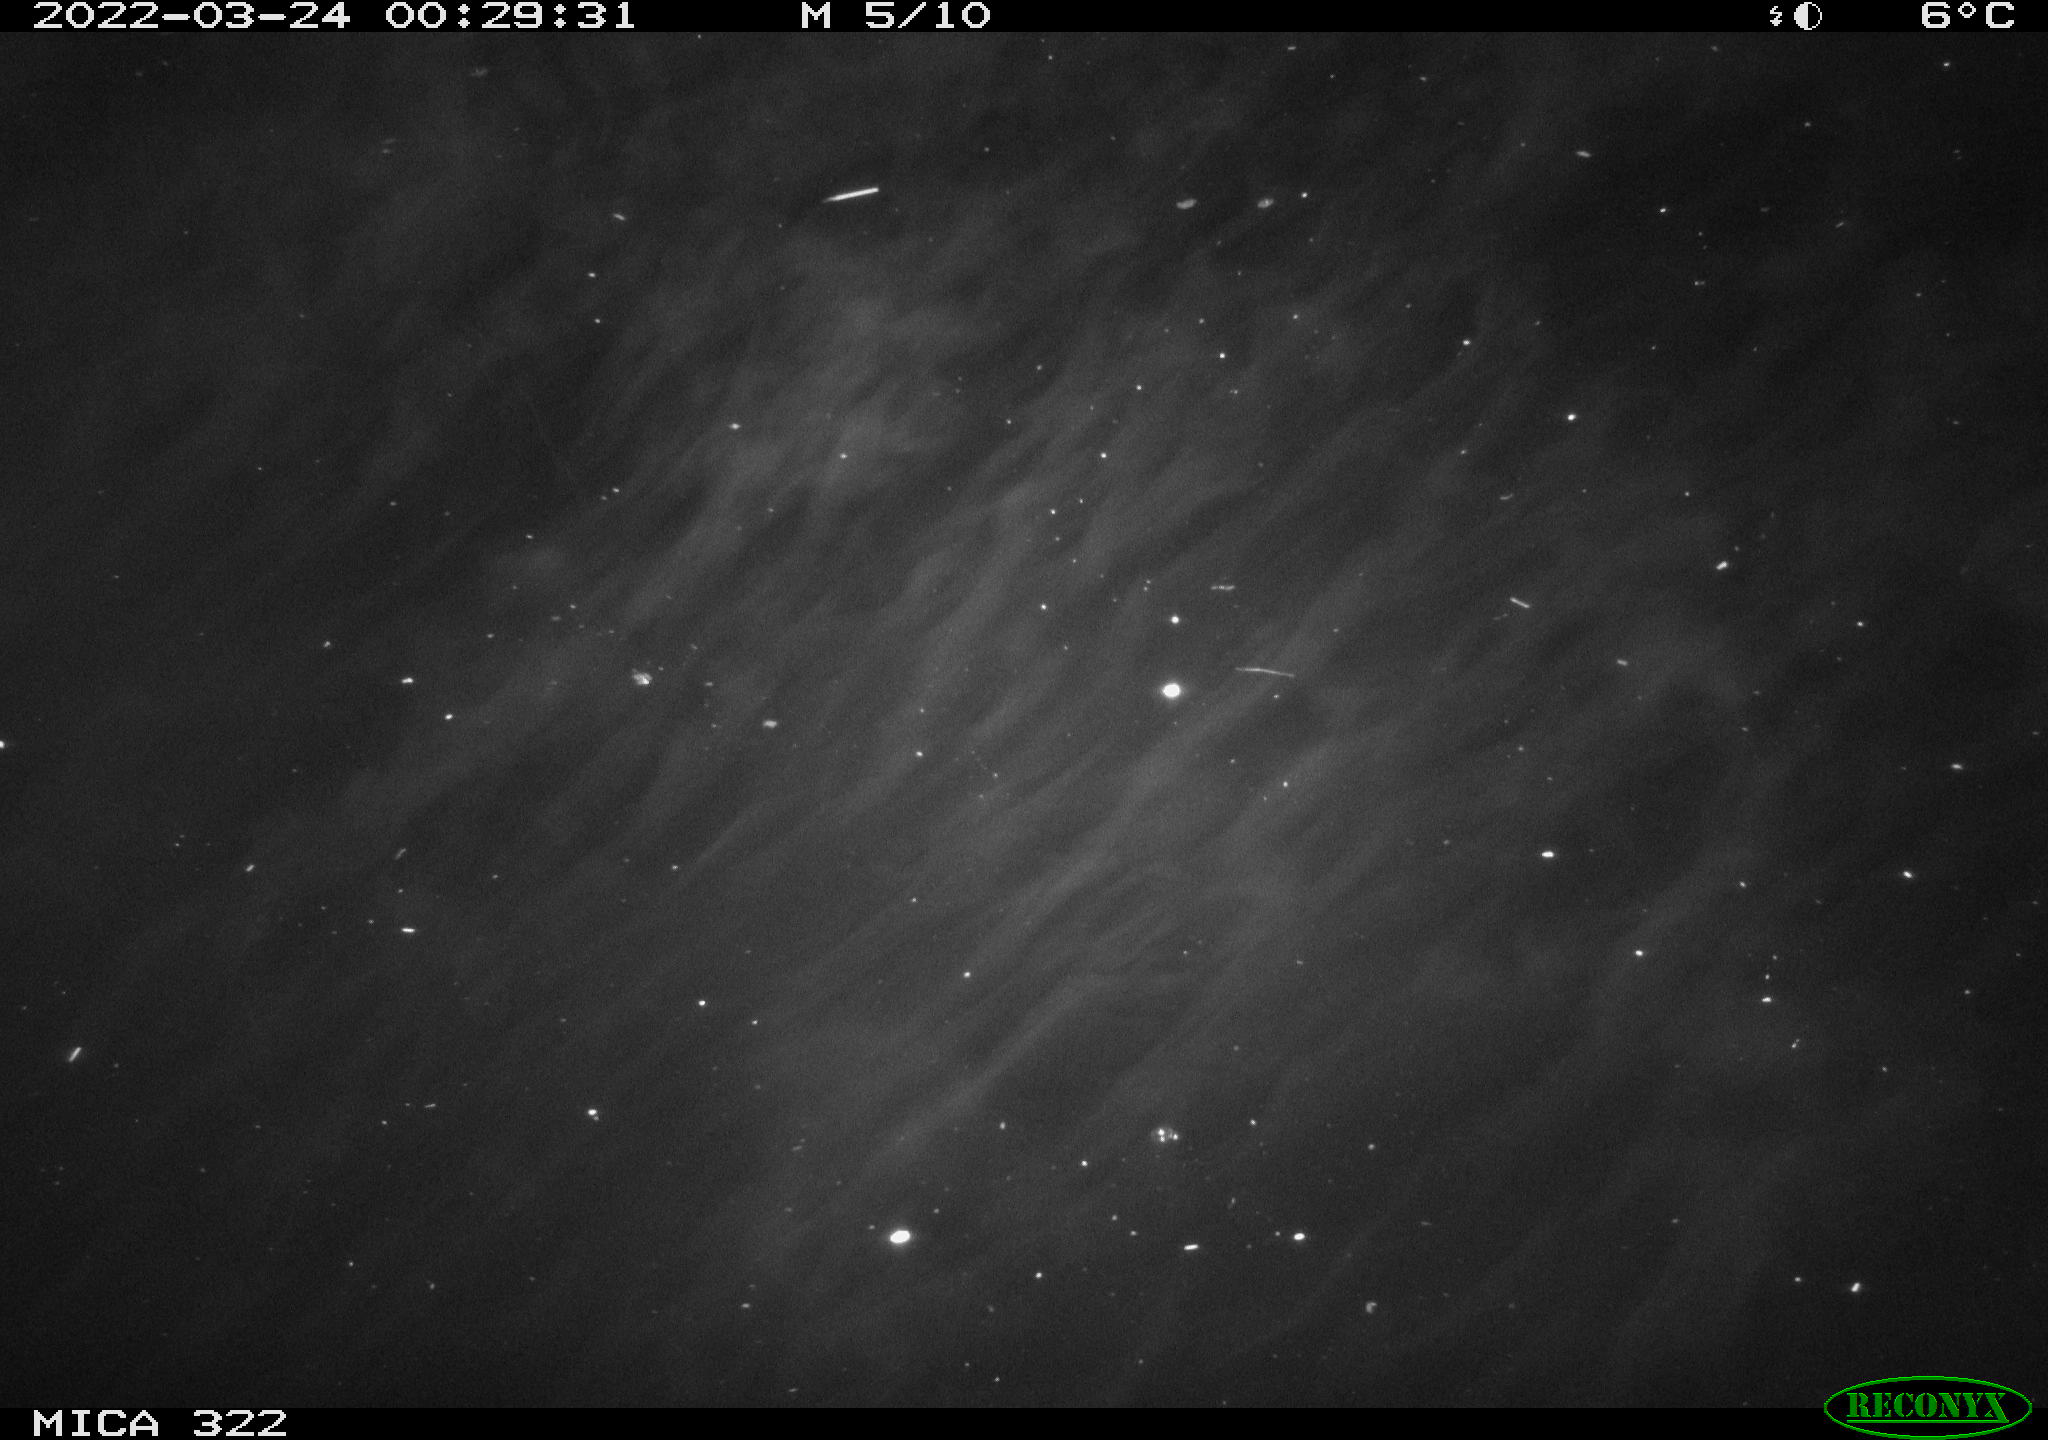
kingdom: Animalia
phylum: Chordata
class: Aves
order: Anseriformes
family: Anatidae
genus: Anas
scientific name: Anas platyrhynchos
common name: Mallard
